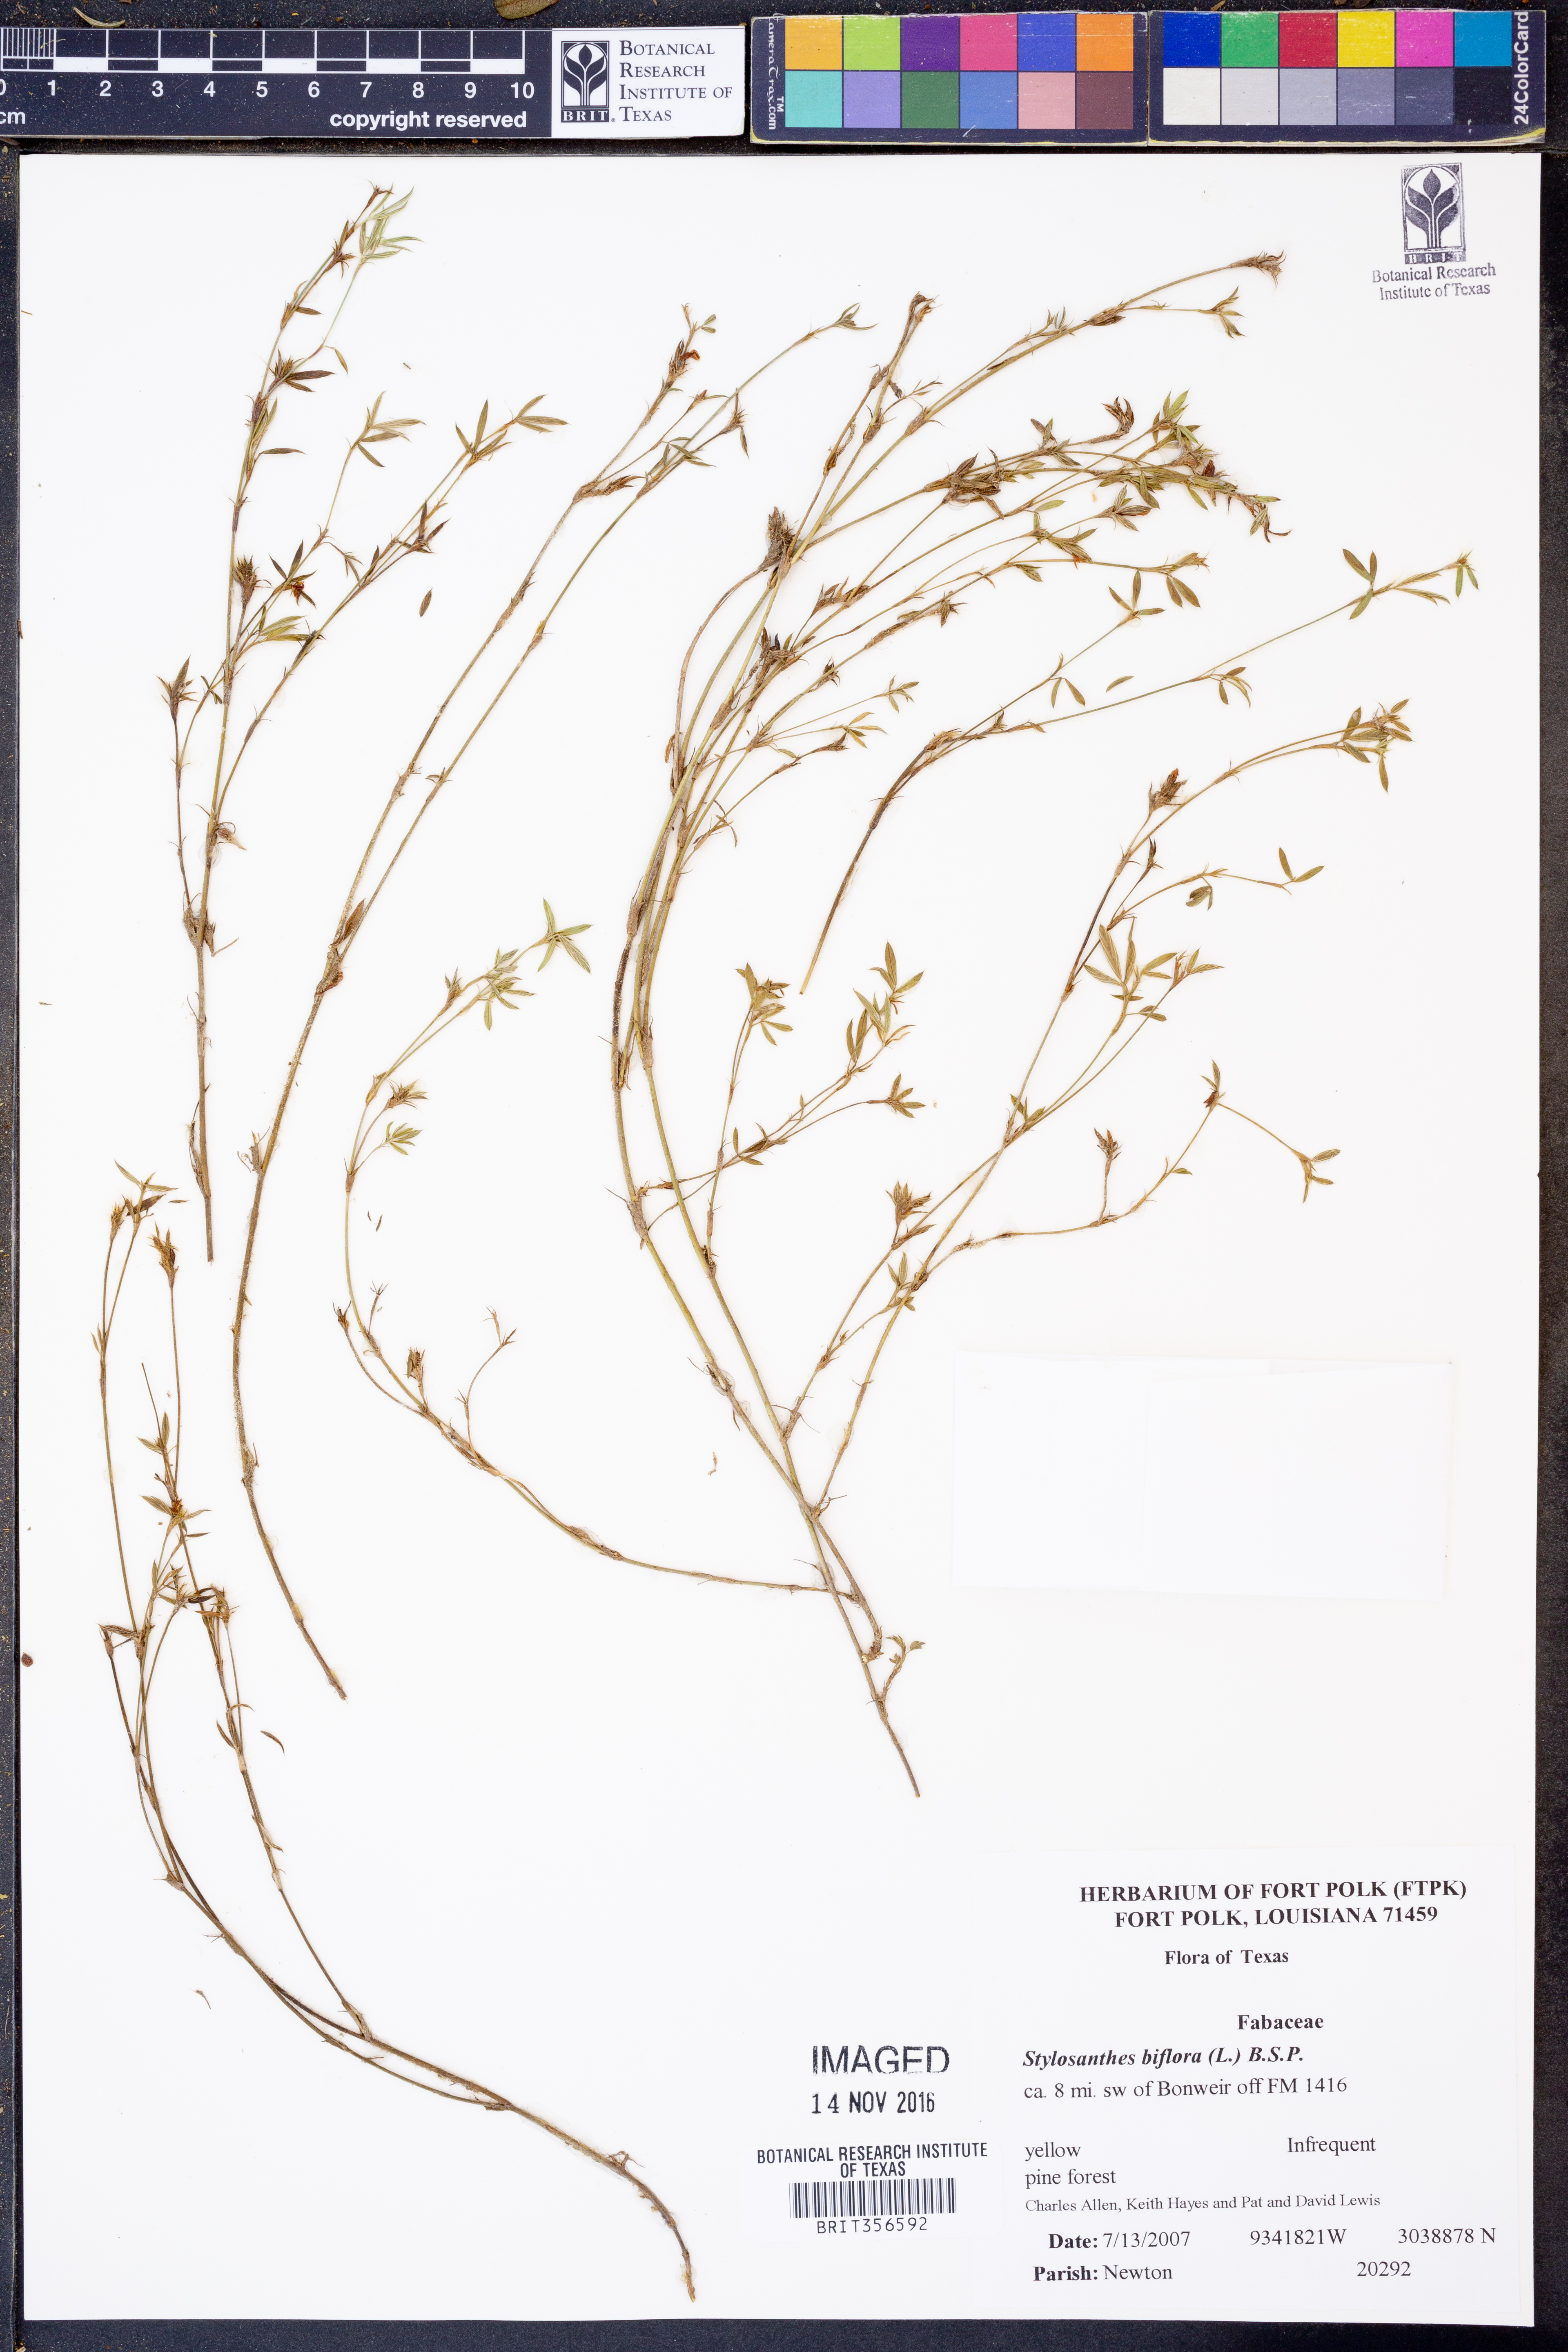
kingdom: Plantae
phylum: Tracheophyta
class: Magnoliopsida
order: Fabales
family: Fabaceae
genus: Stylosanthes
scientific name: Stylosanthes biflora
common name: Two-flower pencil-flower
